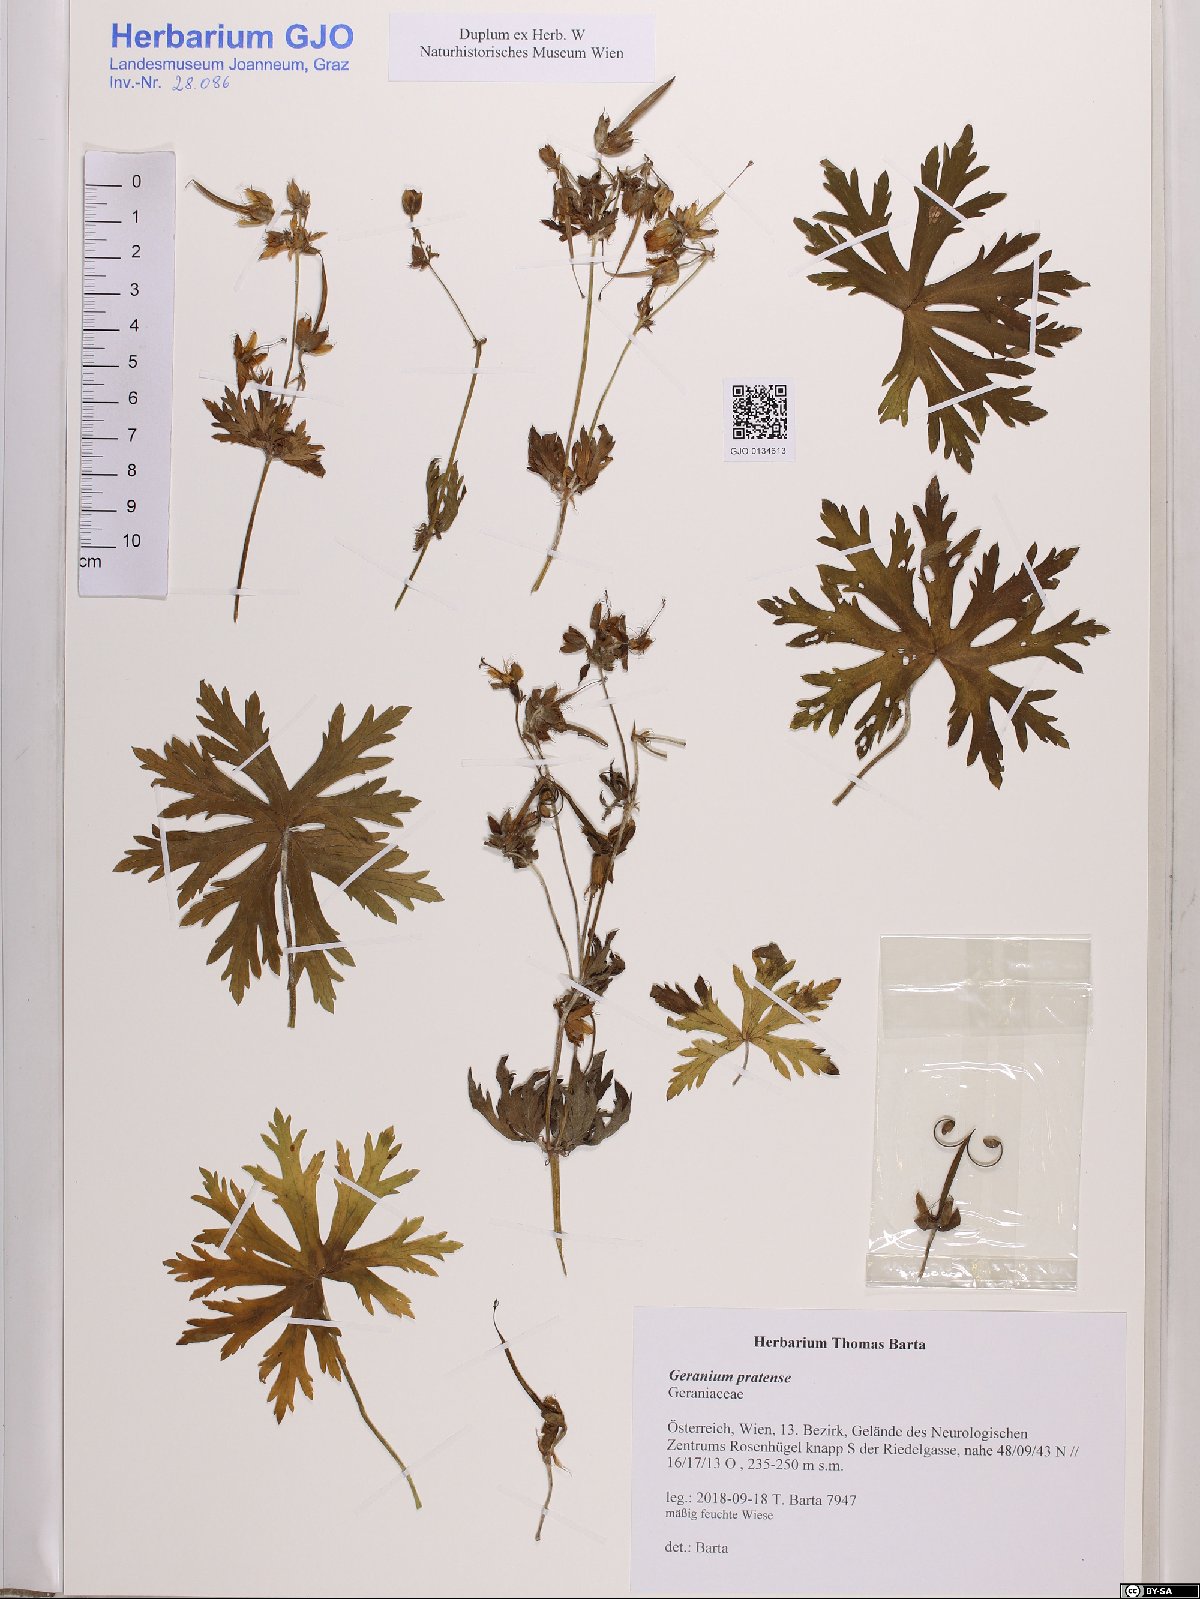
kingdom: Plantae
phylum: Tracheophyta
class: Magnoliopsida
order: Geraniales
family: Geraniaceae
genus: Geranium
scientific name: Geranium pratense
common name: Meadow crane's-bill
